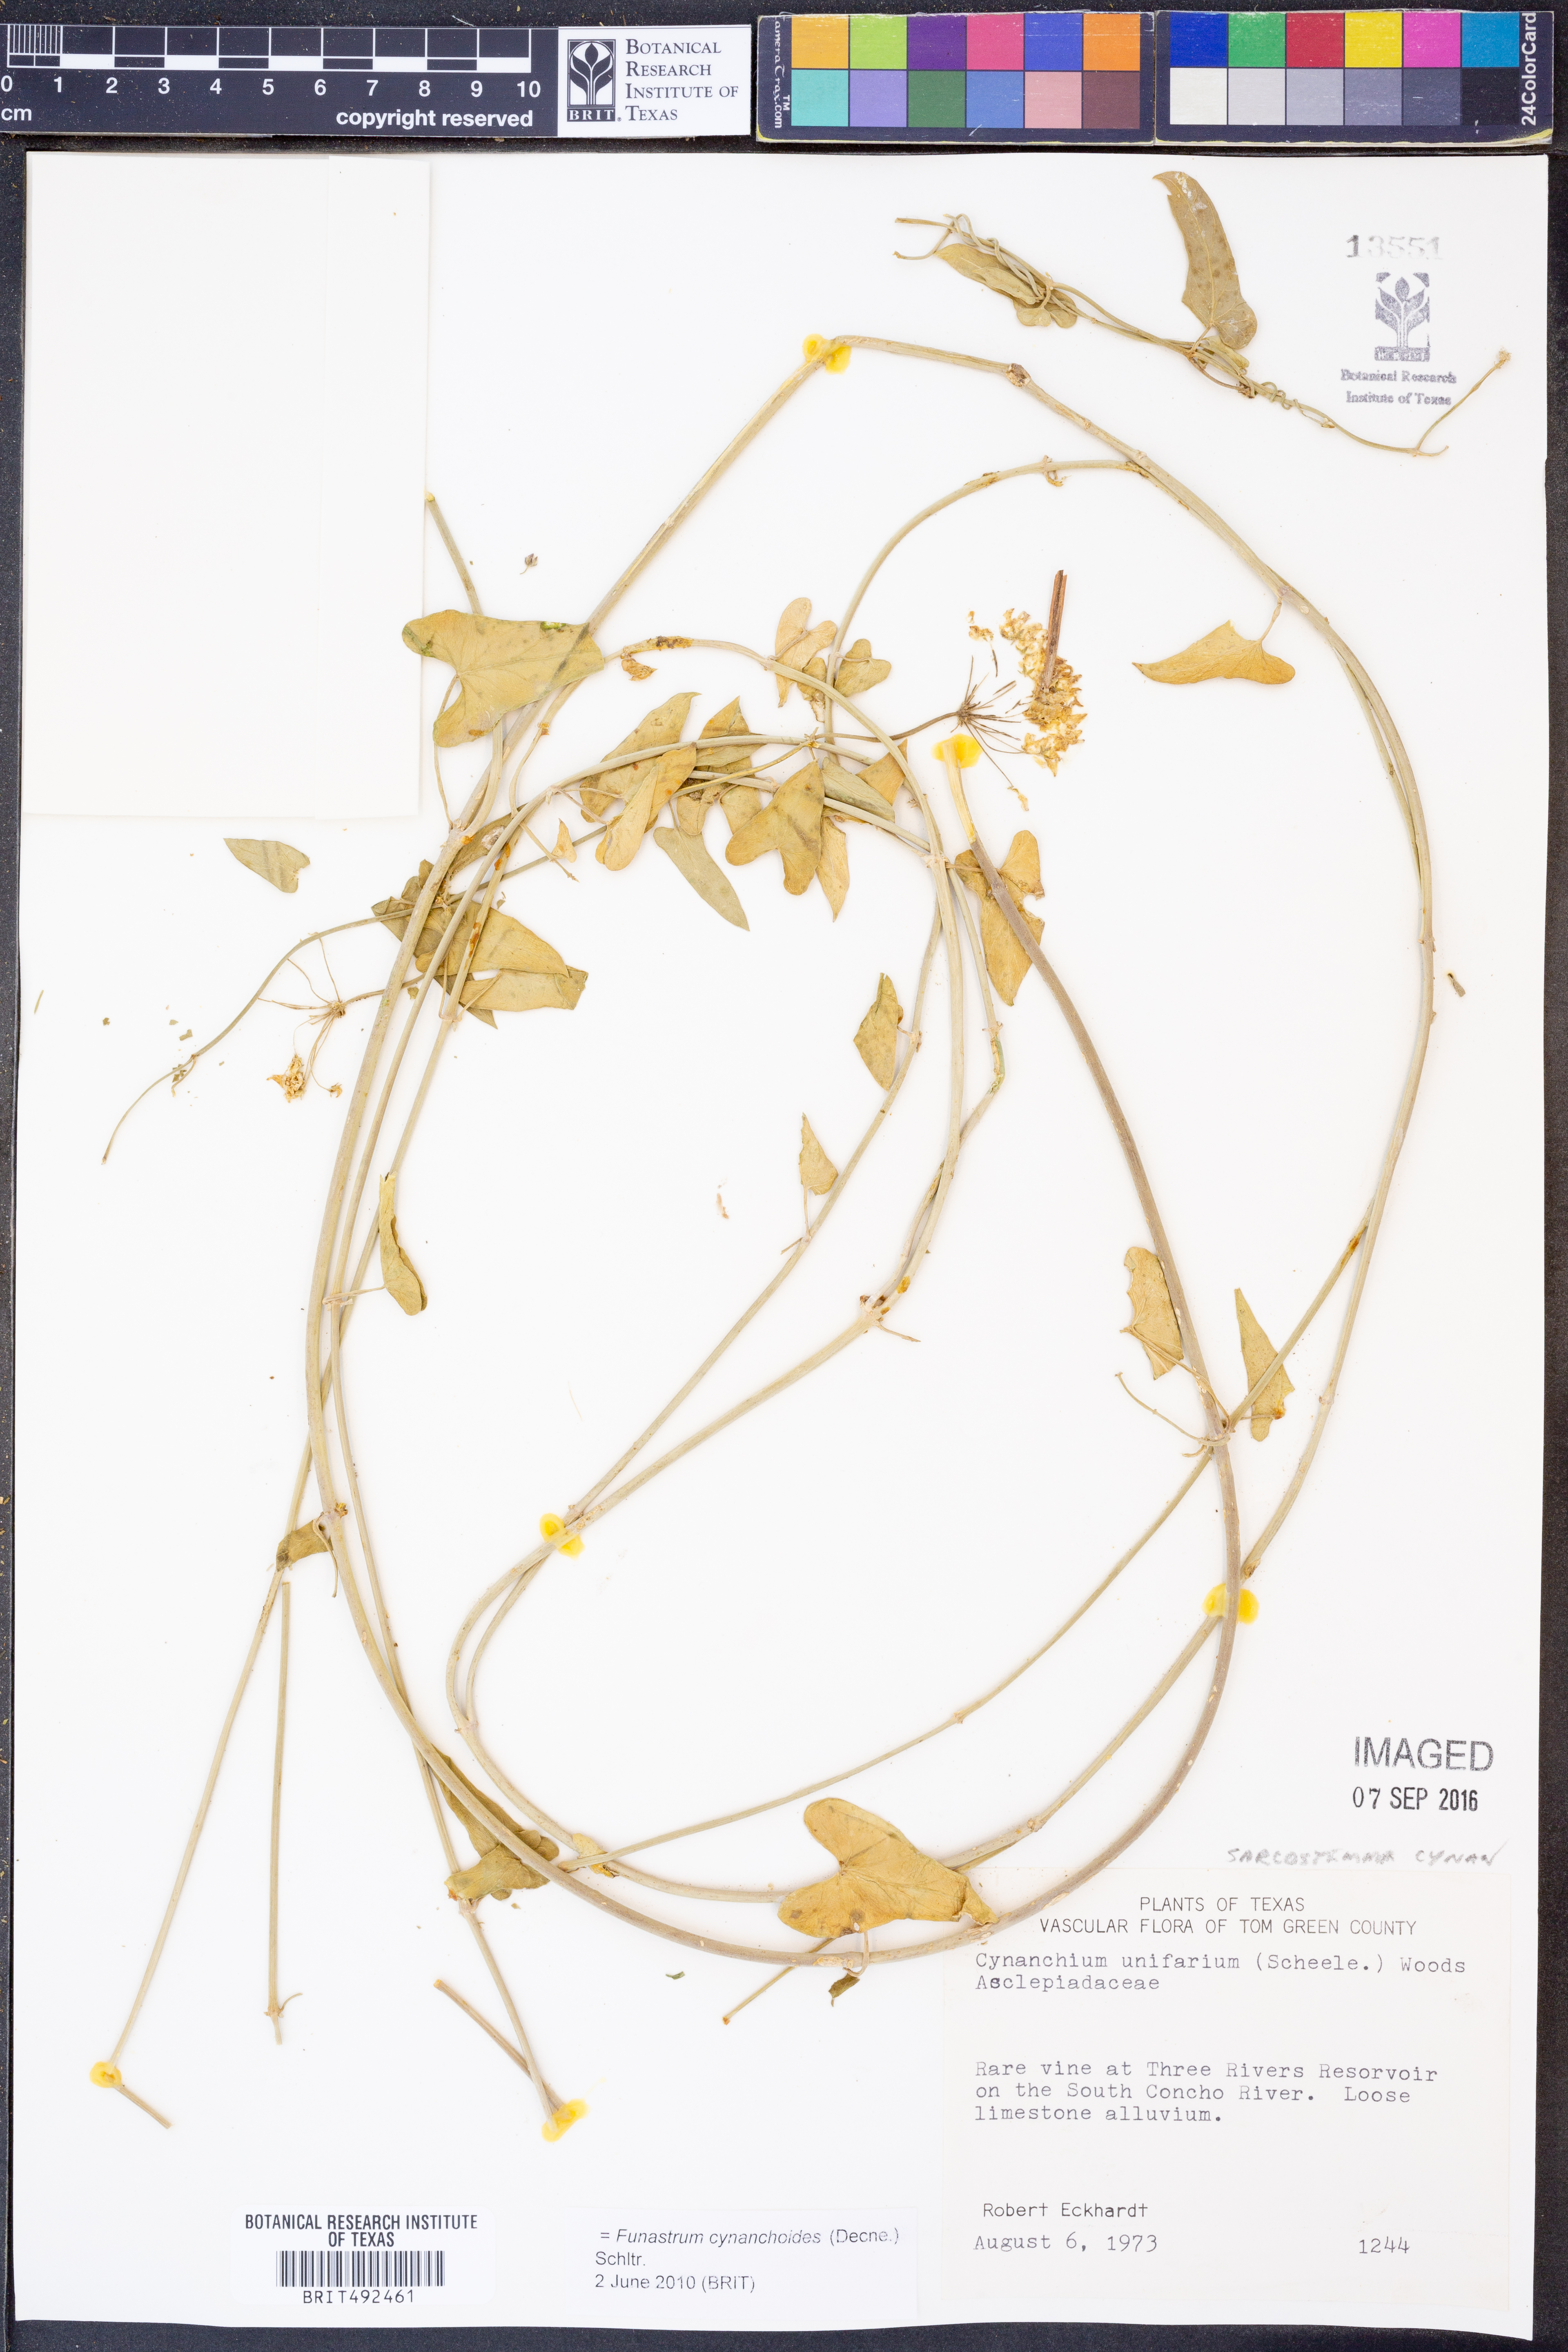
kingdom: Plantae
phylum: Tracheophyta
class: Magnoliopsida
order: Gentianales
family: Apocynaceae
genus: Funastrum
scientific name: Funastrum cynanchoides
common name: Climbing-milkweed
